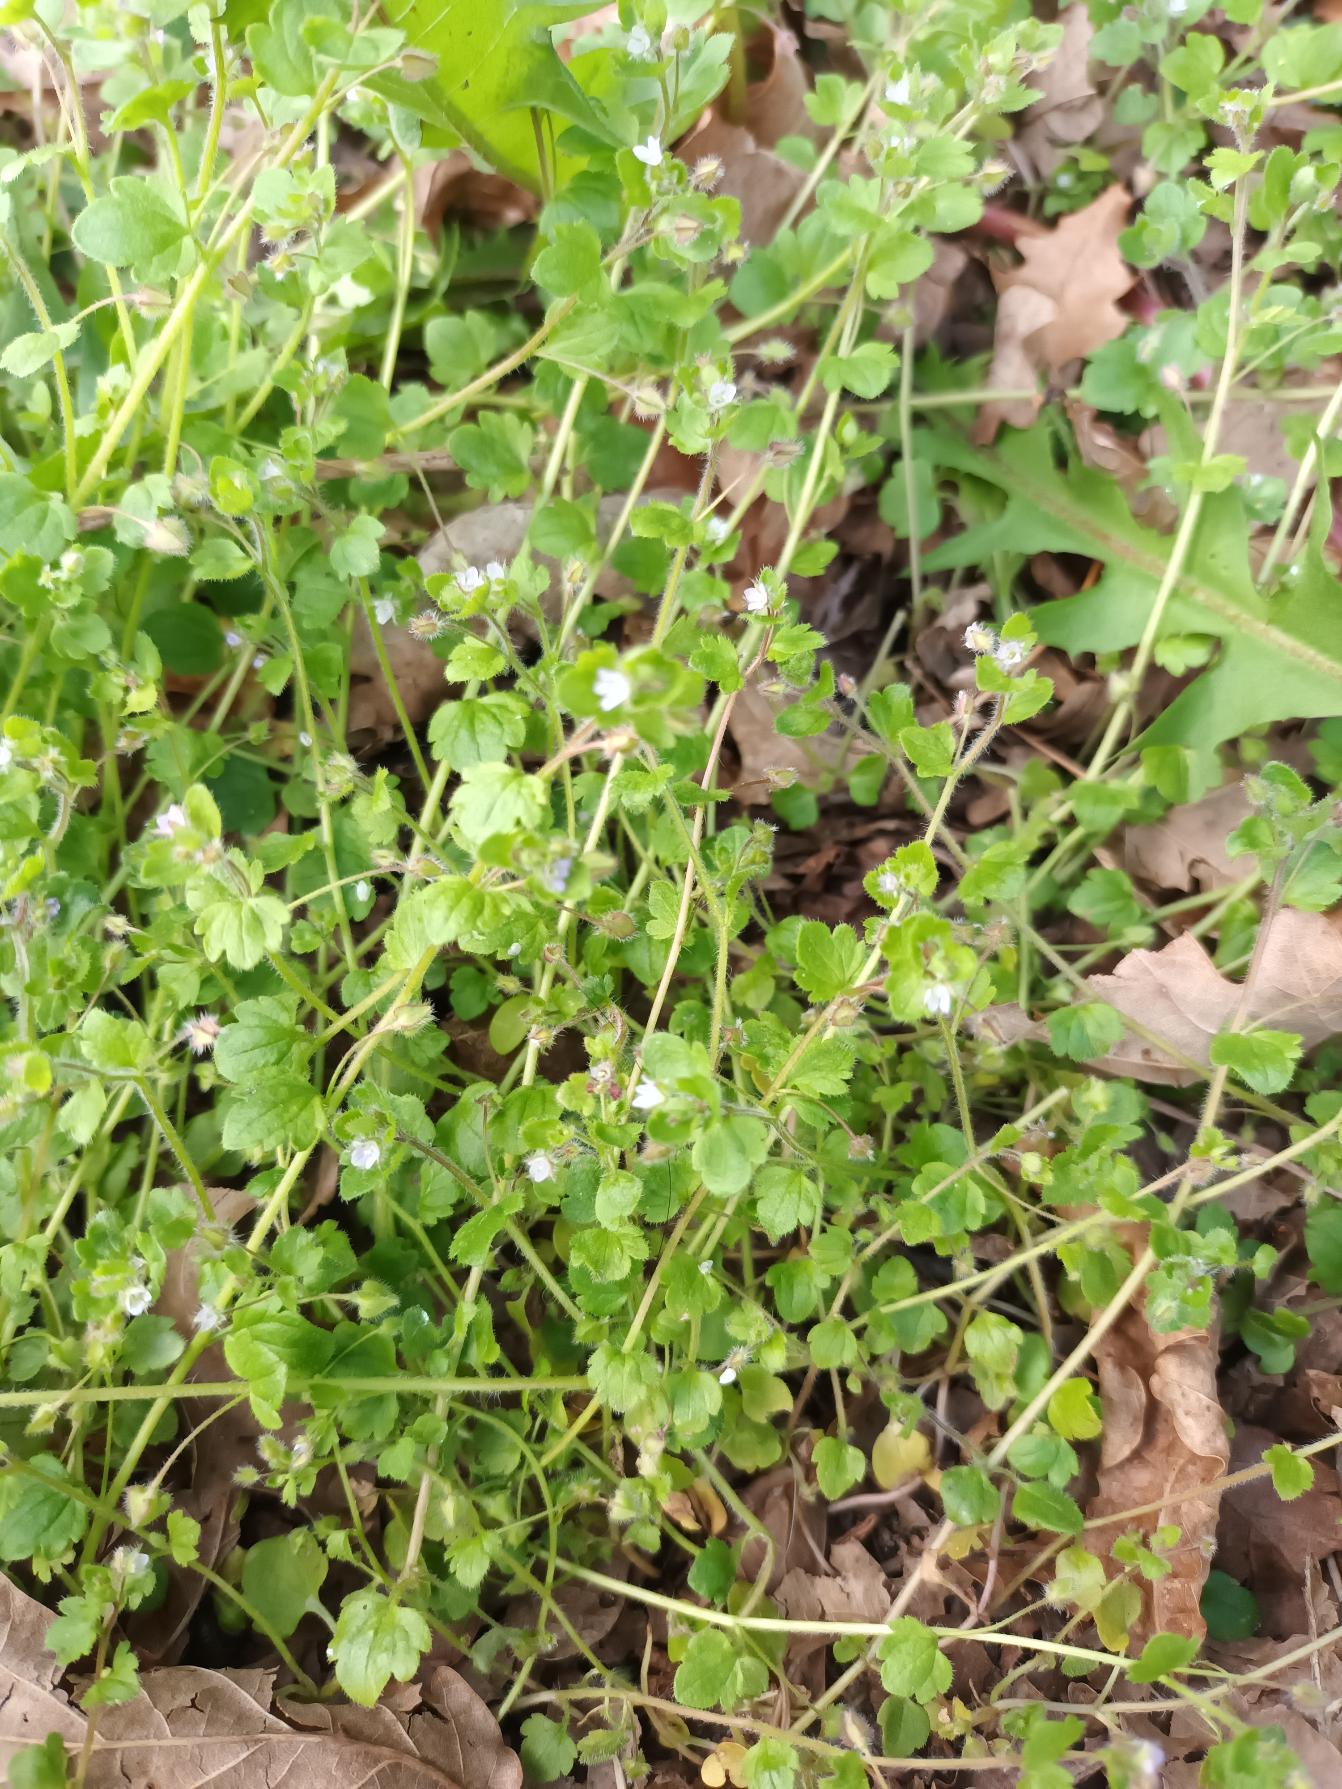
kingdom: Plantae
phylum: Tracheophyta
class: Magnoliopsida
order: Lamiales
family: Plantaginaceae
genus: Veronica
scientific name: Veronica sublobata
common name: Krat-ærenpris
